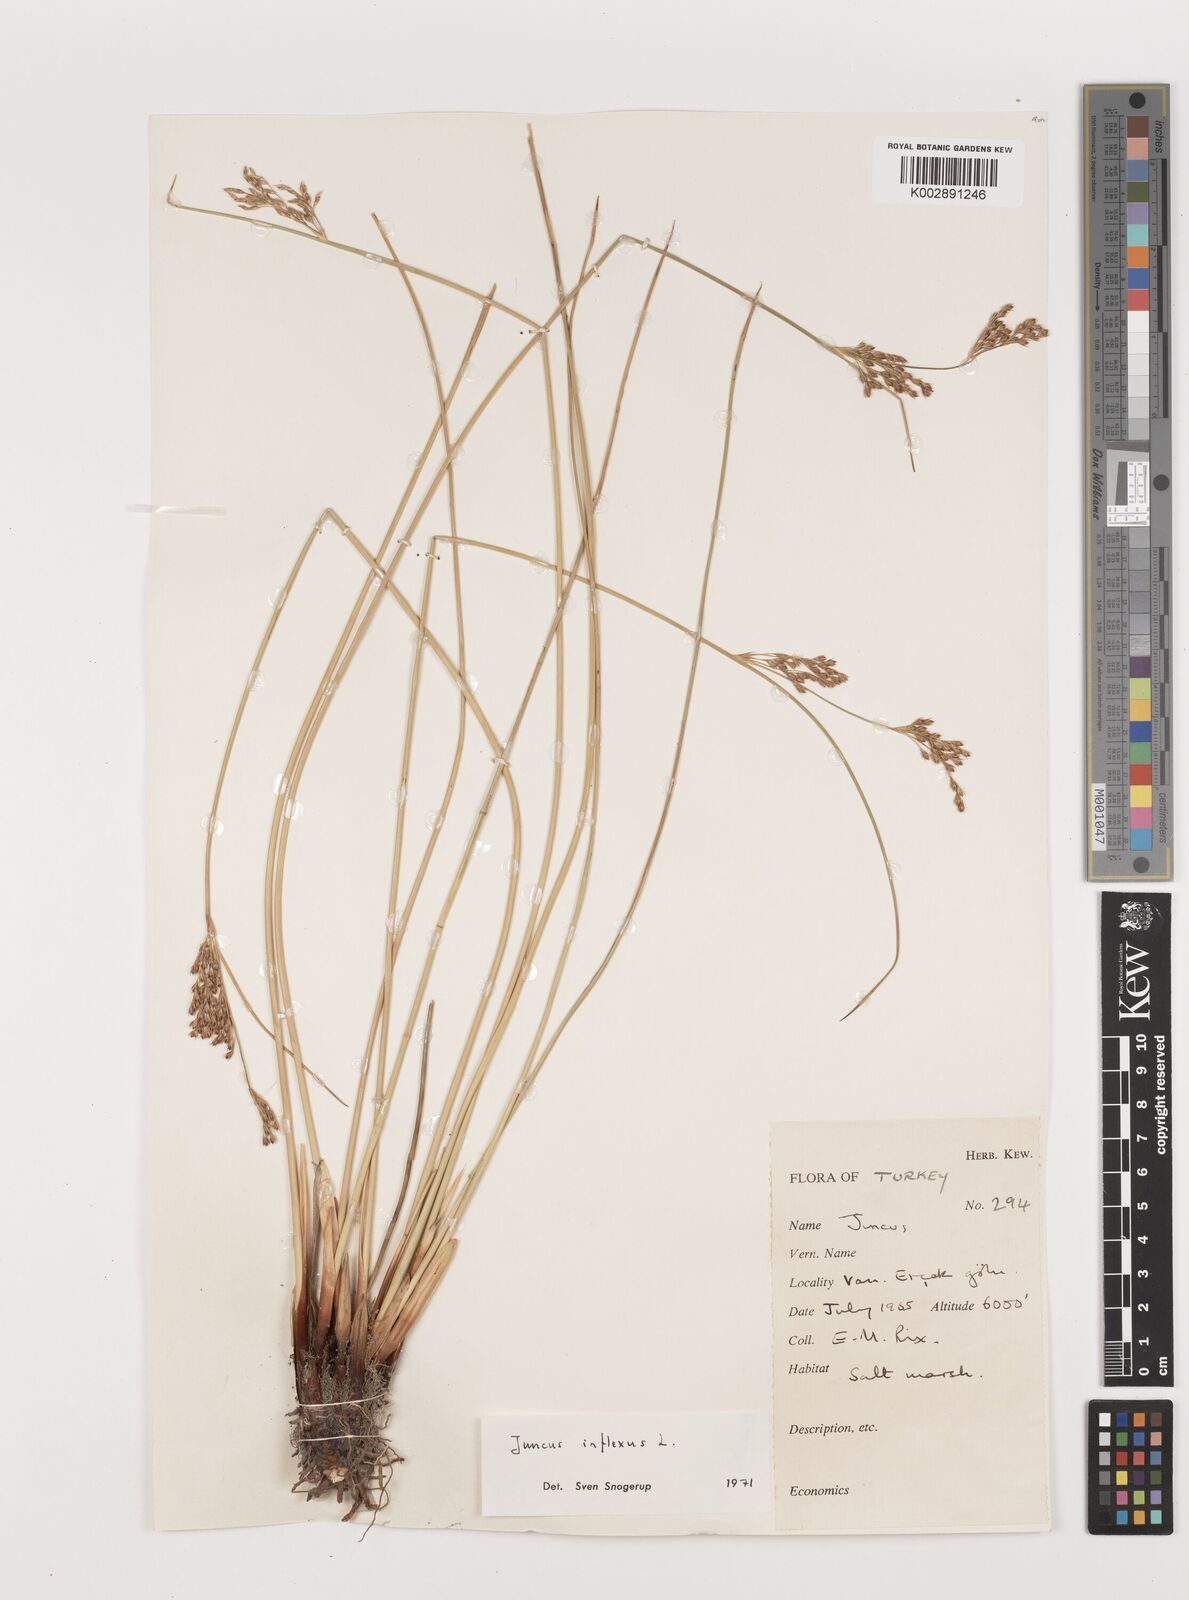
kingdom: Plantae
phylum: Tracheophyta
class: Liliopsida
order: Poales
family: Juncaceae
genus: Juncus
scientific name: Juncus inflexus
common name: Hard rush
